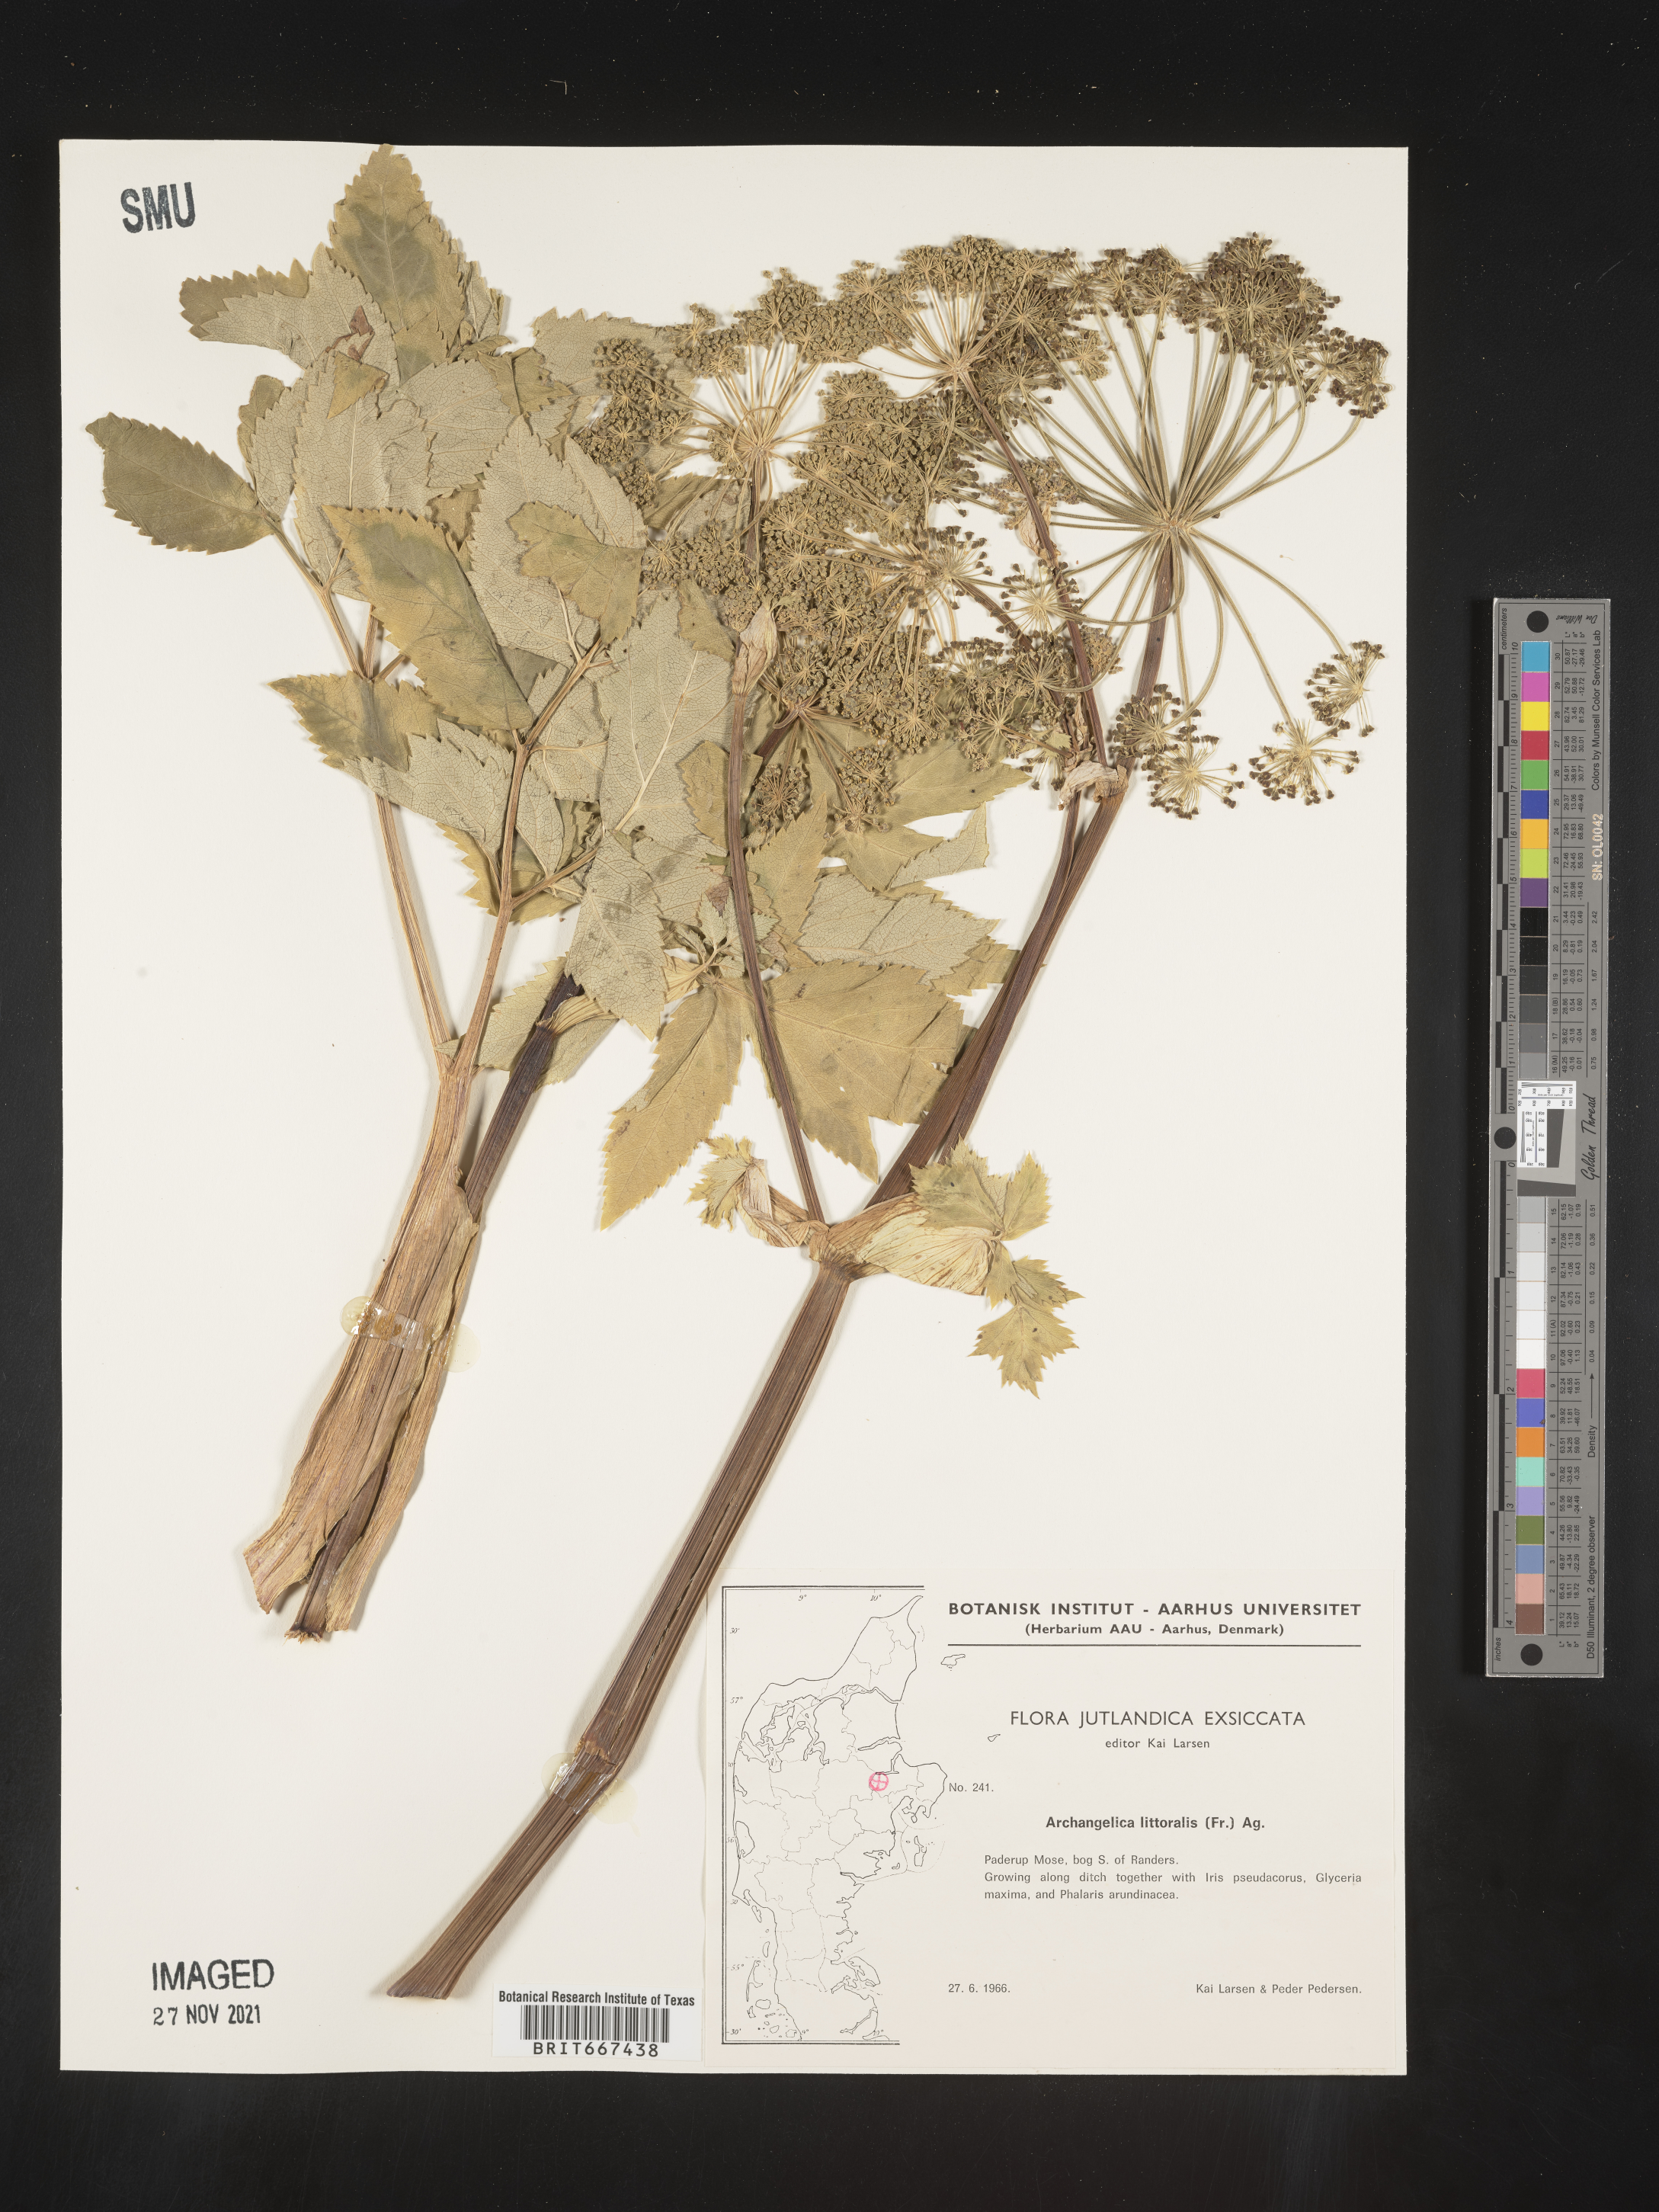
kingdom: Plantae
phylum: Tracheophyta
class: Magnoliopsida
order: Apiales
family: Apiaceae
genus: Archangelica
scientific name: Archangelica
